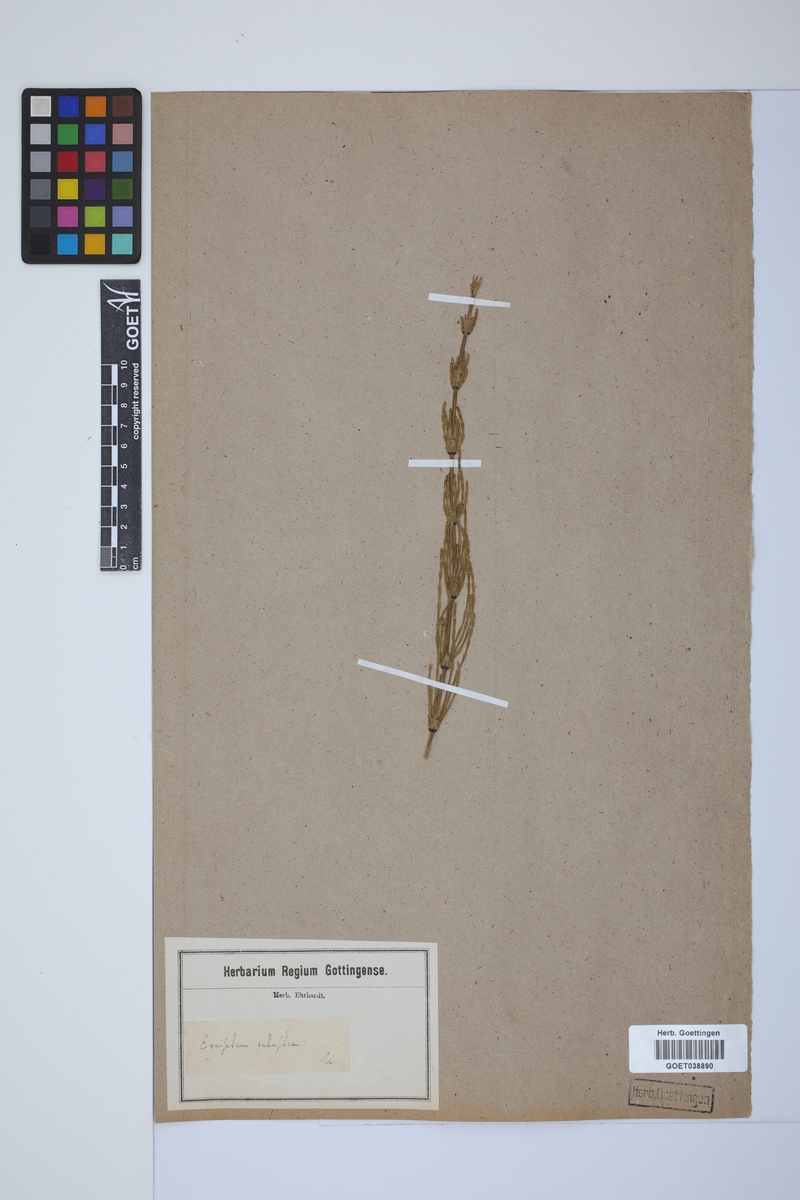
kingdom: Plantae
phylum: Tracheophyta
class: Polypodiopsida
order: Equisetales
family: Equisetaceae
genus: Equisetum
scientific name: Equisetum palustre
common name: Marsh horsetail
